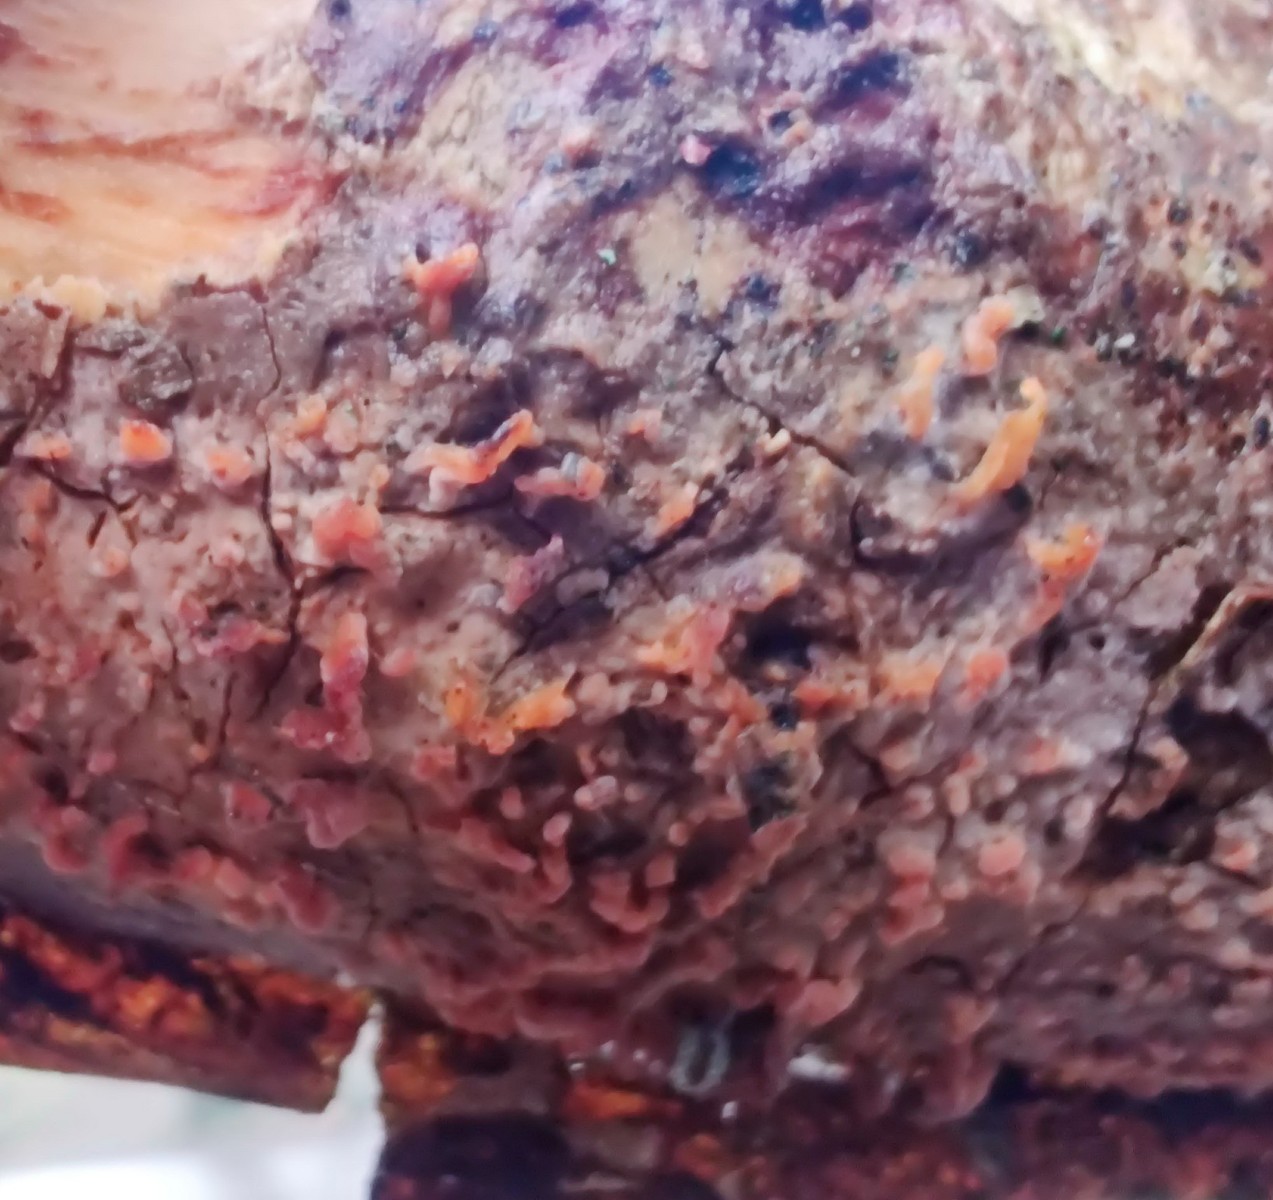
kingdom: Fungi
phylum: Basidiomycota
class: Agaricomycetes
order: Russulales
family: Peniophoraceae
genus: Peniophora
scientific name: Peniophora laeta
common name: tandet voksskind
